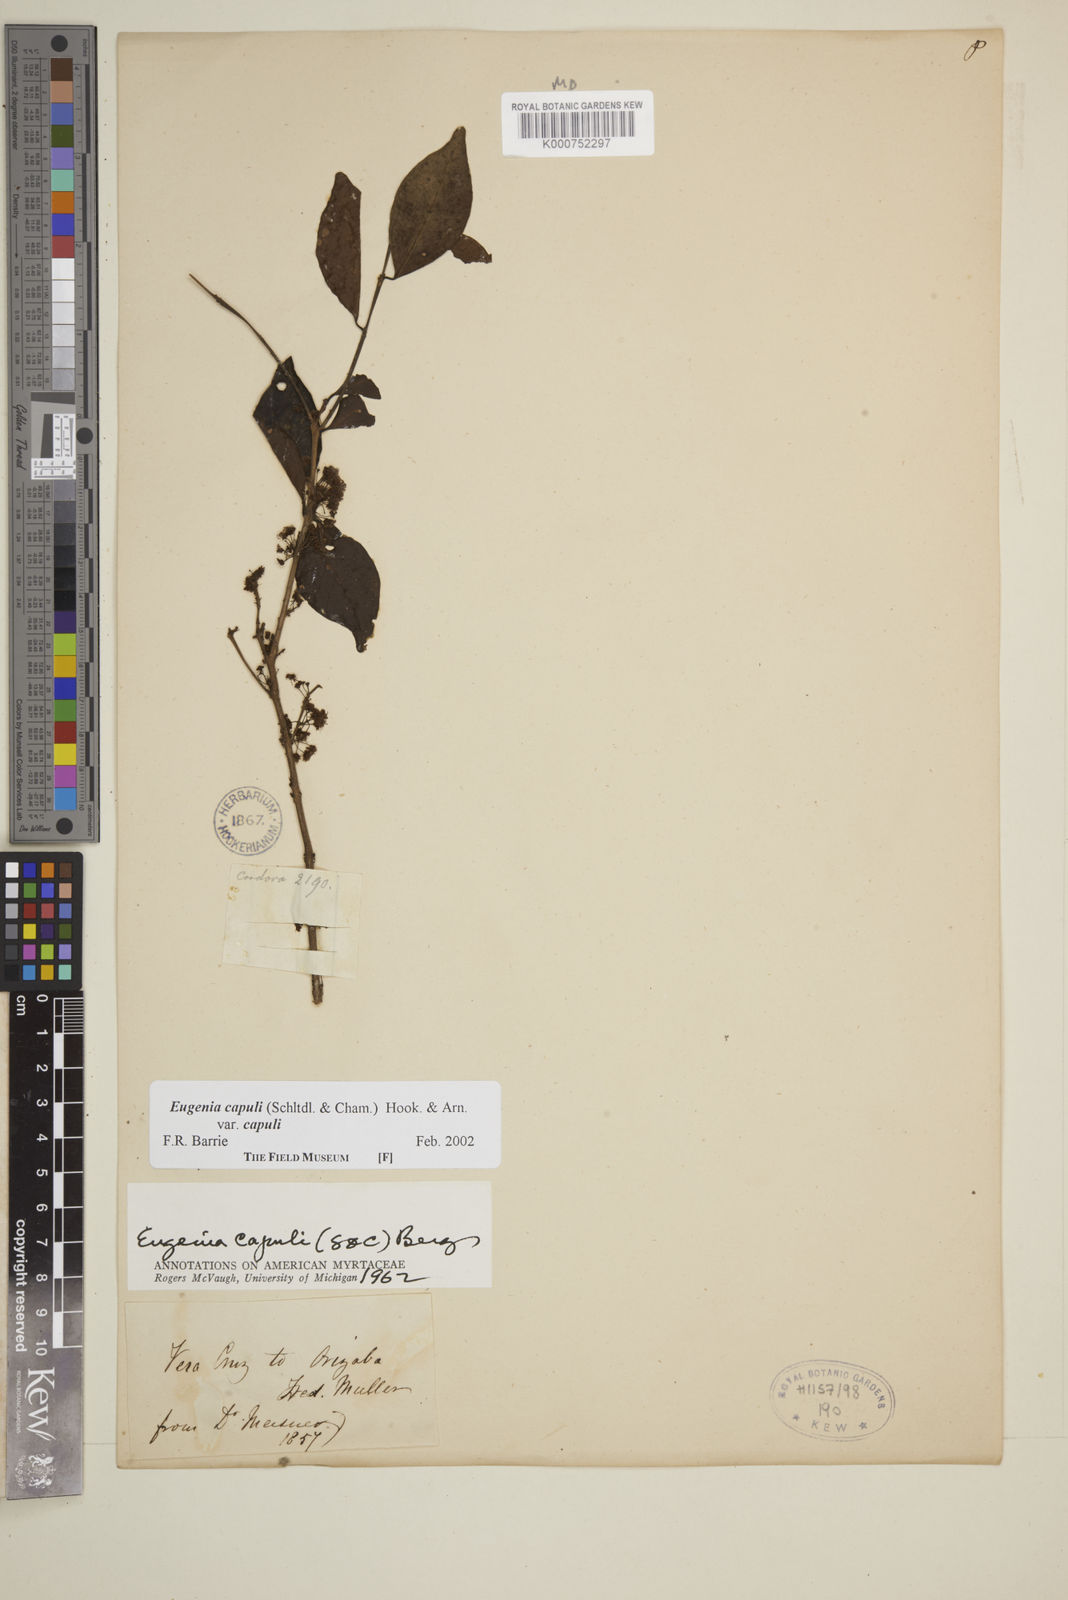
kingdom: Plantae
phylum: Tracheophyta
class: Magnoliopsida
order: Myrtales
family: Myrtaceae
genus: Eugenia
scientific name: Eugenia capuli
